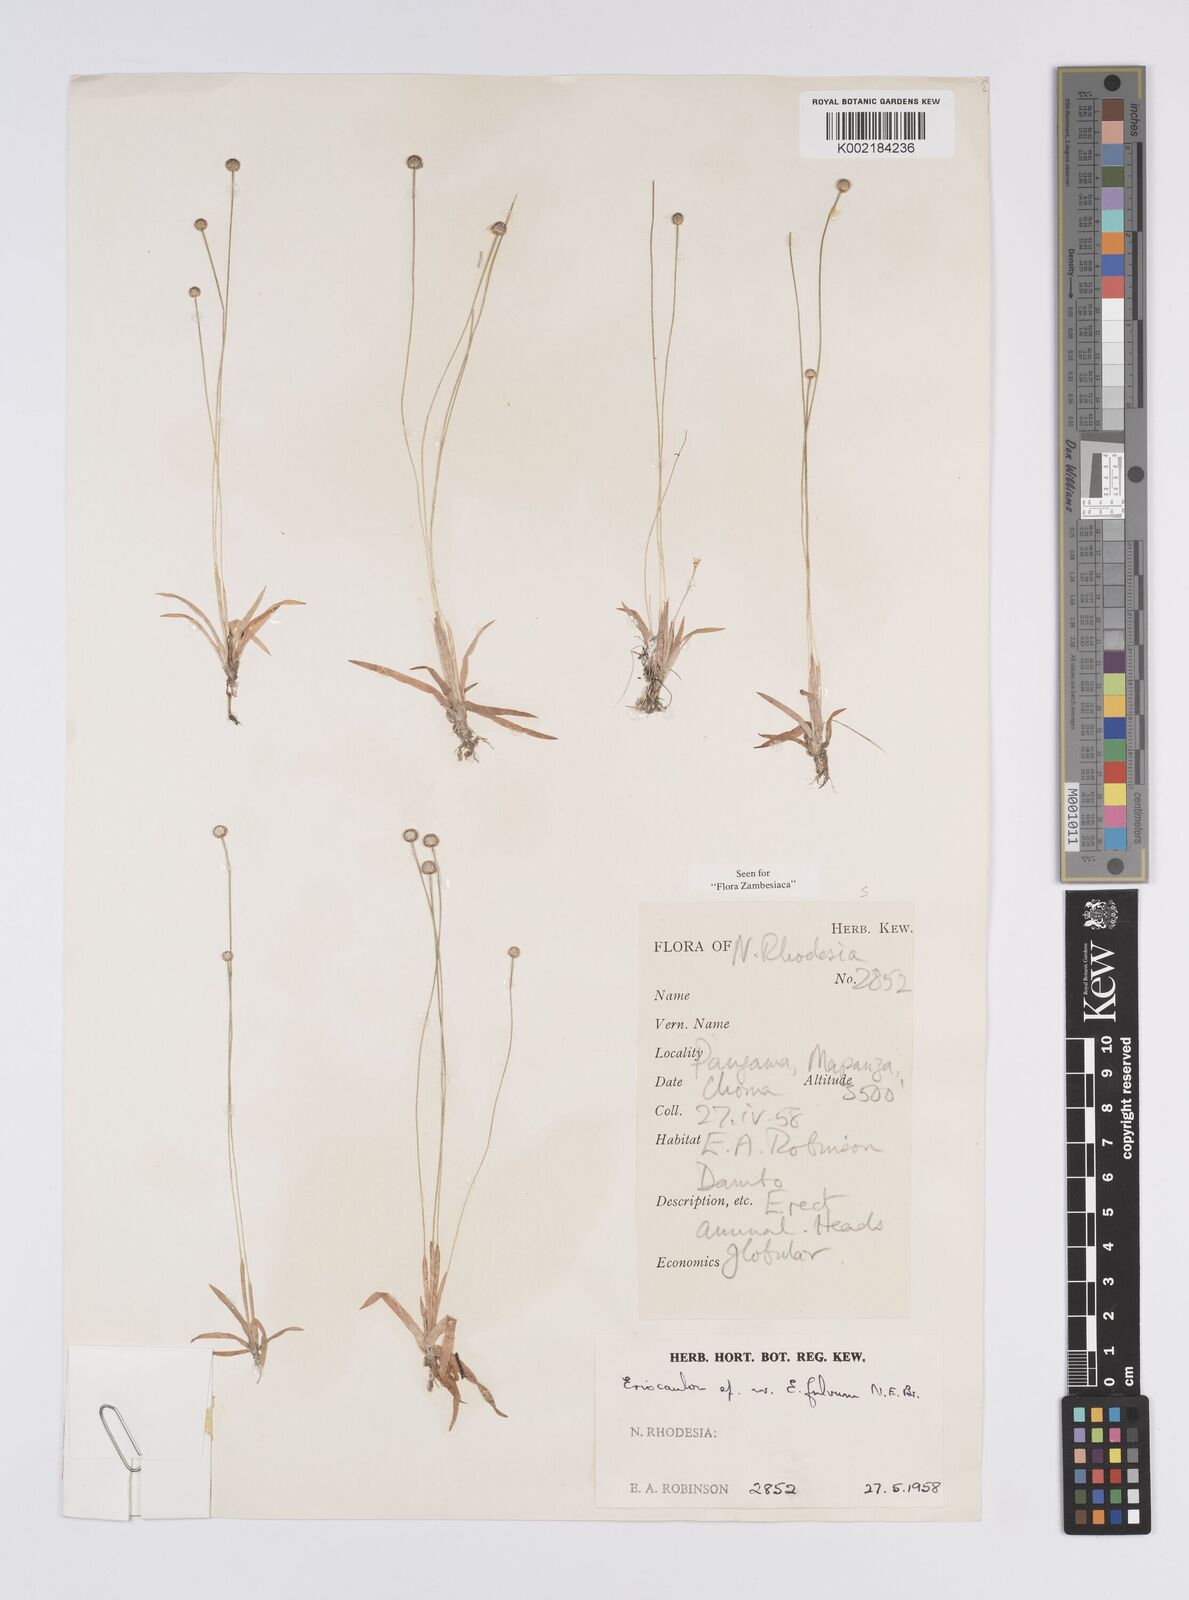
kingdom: Plantae
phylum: Tracheophyta
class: Liliopsida
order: Poales
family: Eriocaulaceae
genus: Eriocaulon
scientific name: Eriocaulon buchananii
